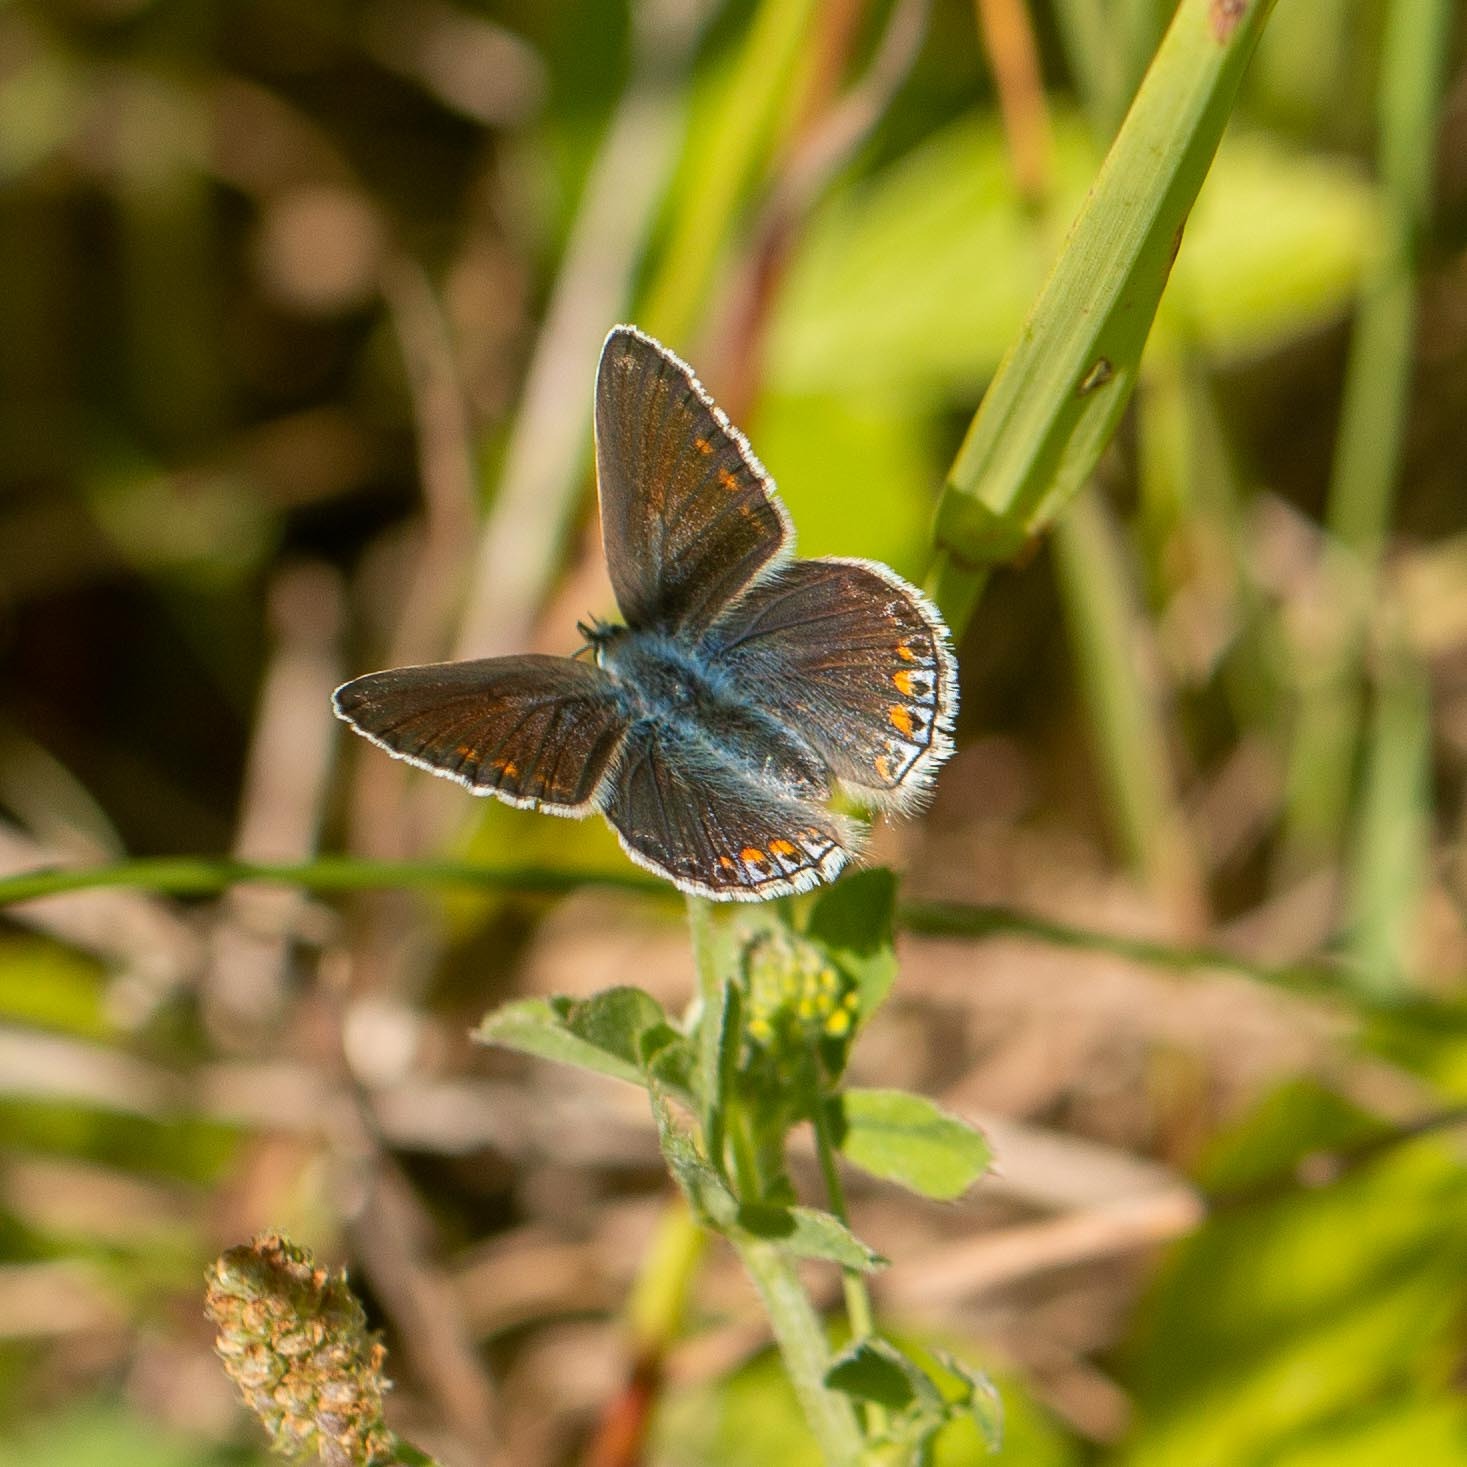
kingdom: Animalia
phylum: Arthropoda
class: Insecta
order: Lepidoptera
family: Lycaenidae
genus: Polyommatus
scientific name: Polyommatus icarus
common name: Almindelig blåfugl
